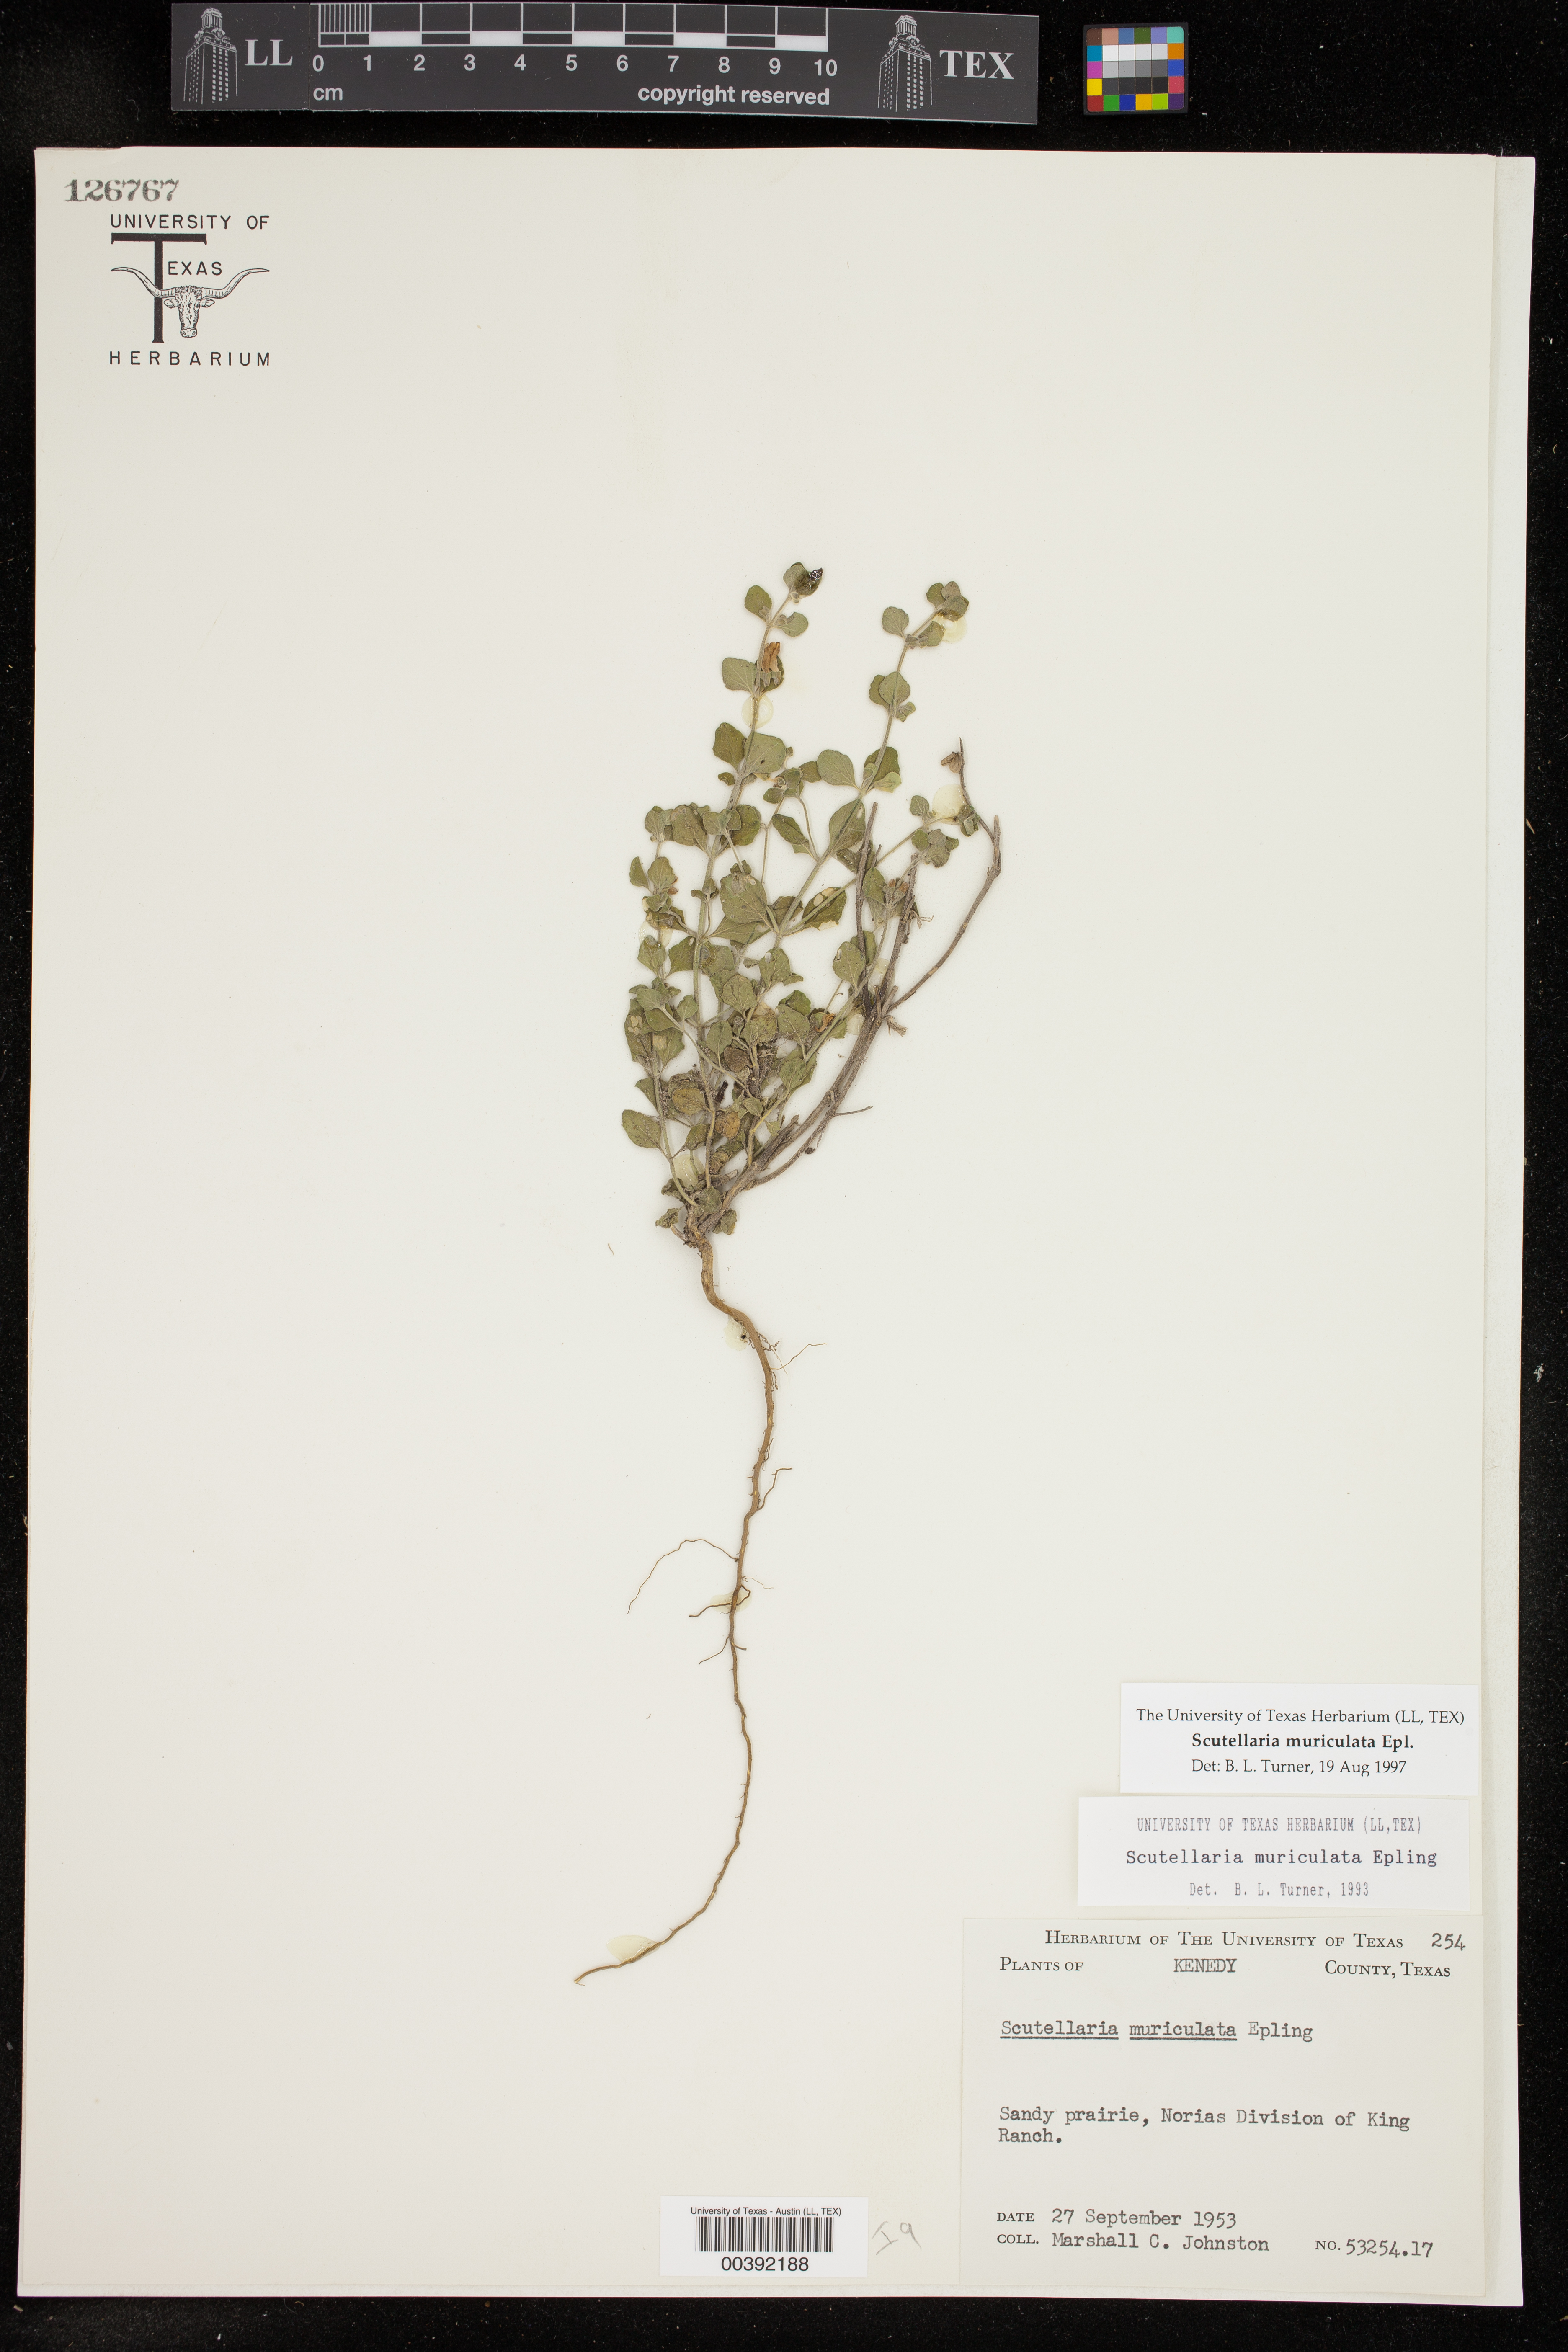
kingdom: Plantae
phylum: Tracheophyta
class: Magnoliopsida
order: Lamiales
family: Lamiaceae
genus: Scutellaria
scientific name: Scutellaria muriculata
